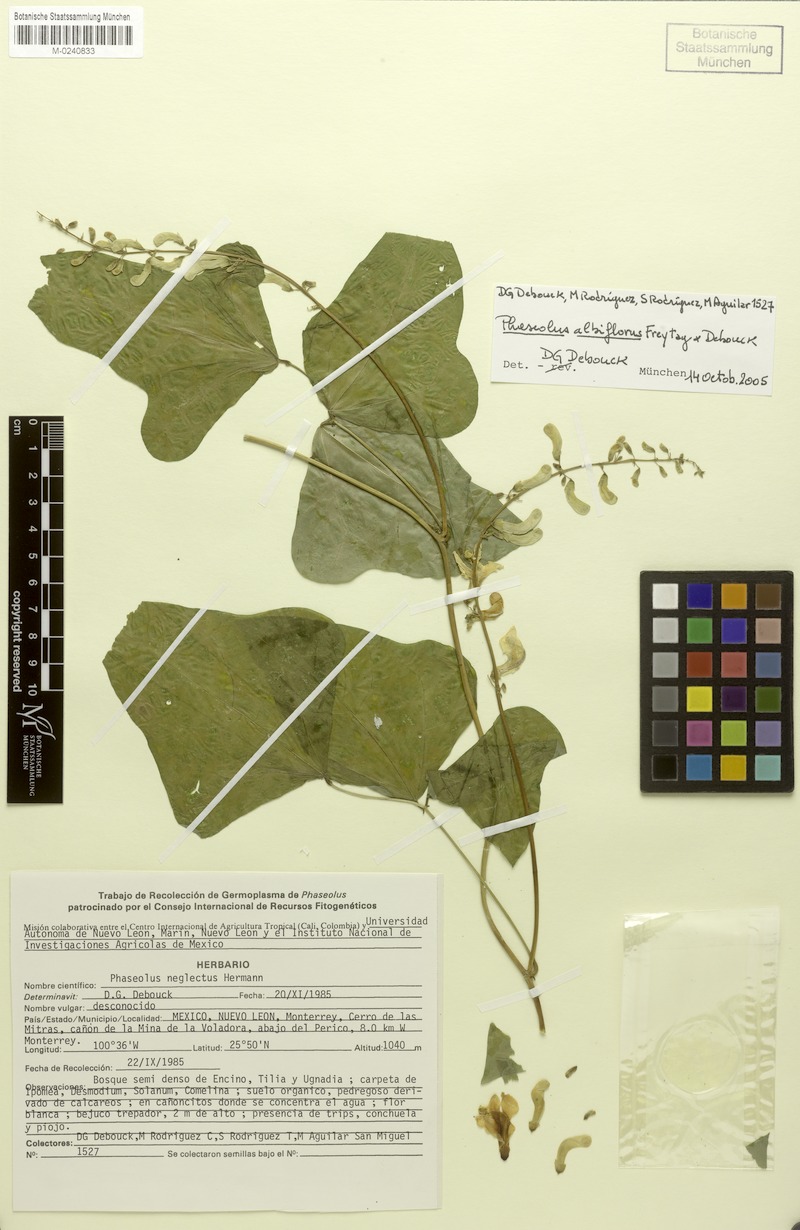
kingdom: Plantae
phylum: Tracheophyta
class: Magnoliopsida
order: Fabales
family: Fabaceae
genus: Phaseolus
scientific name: Phaseolus albiflorus
